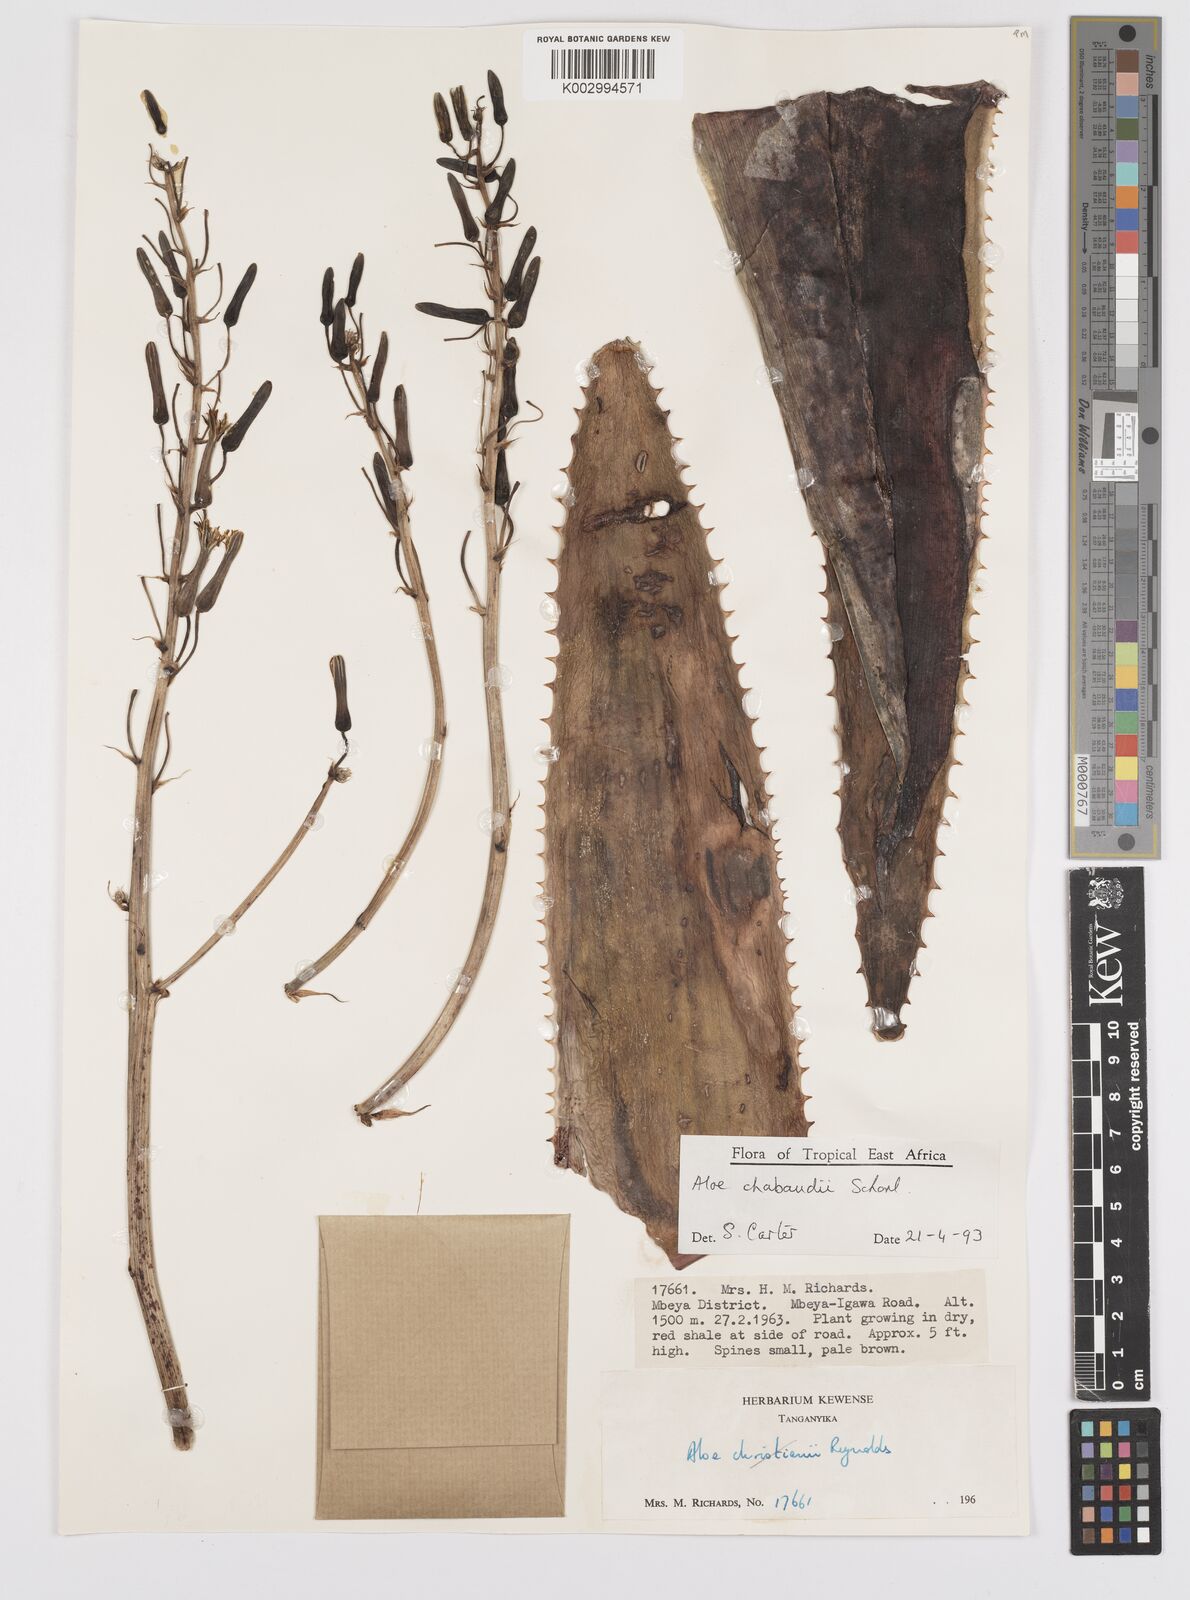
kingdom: Plantae
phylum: Tracheophyta
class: Liliopsida
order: Asparagales
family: Asphodelaceae
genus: Aloe
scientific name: Aloe chabaudii
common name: Chabaud's aloe
